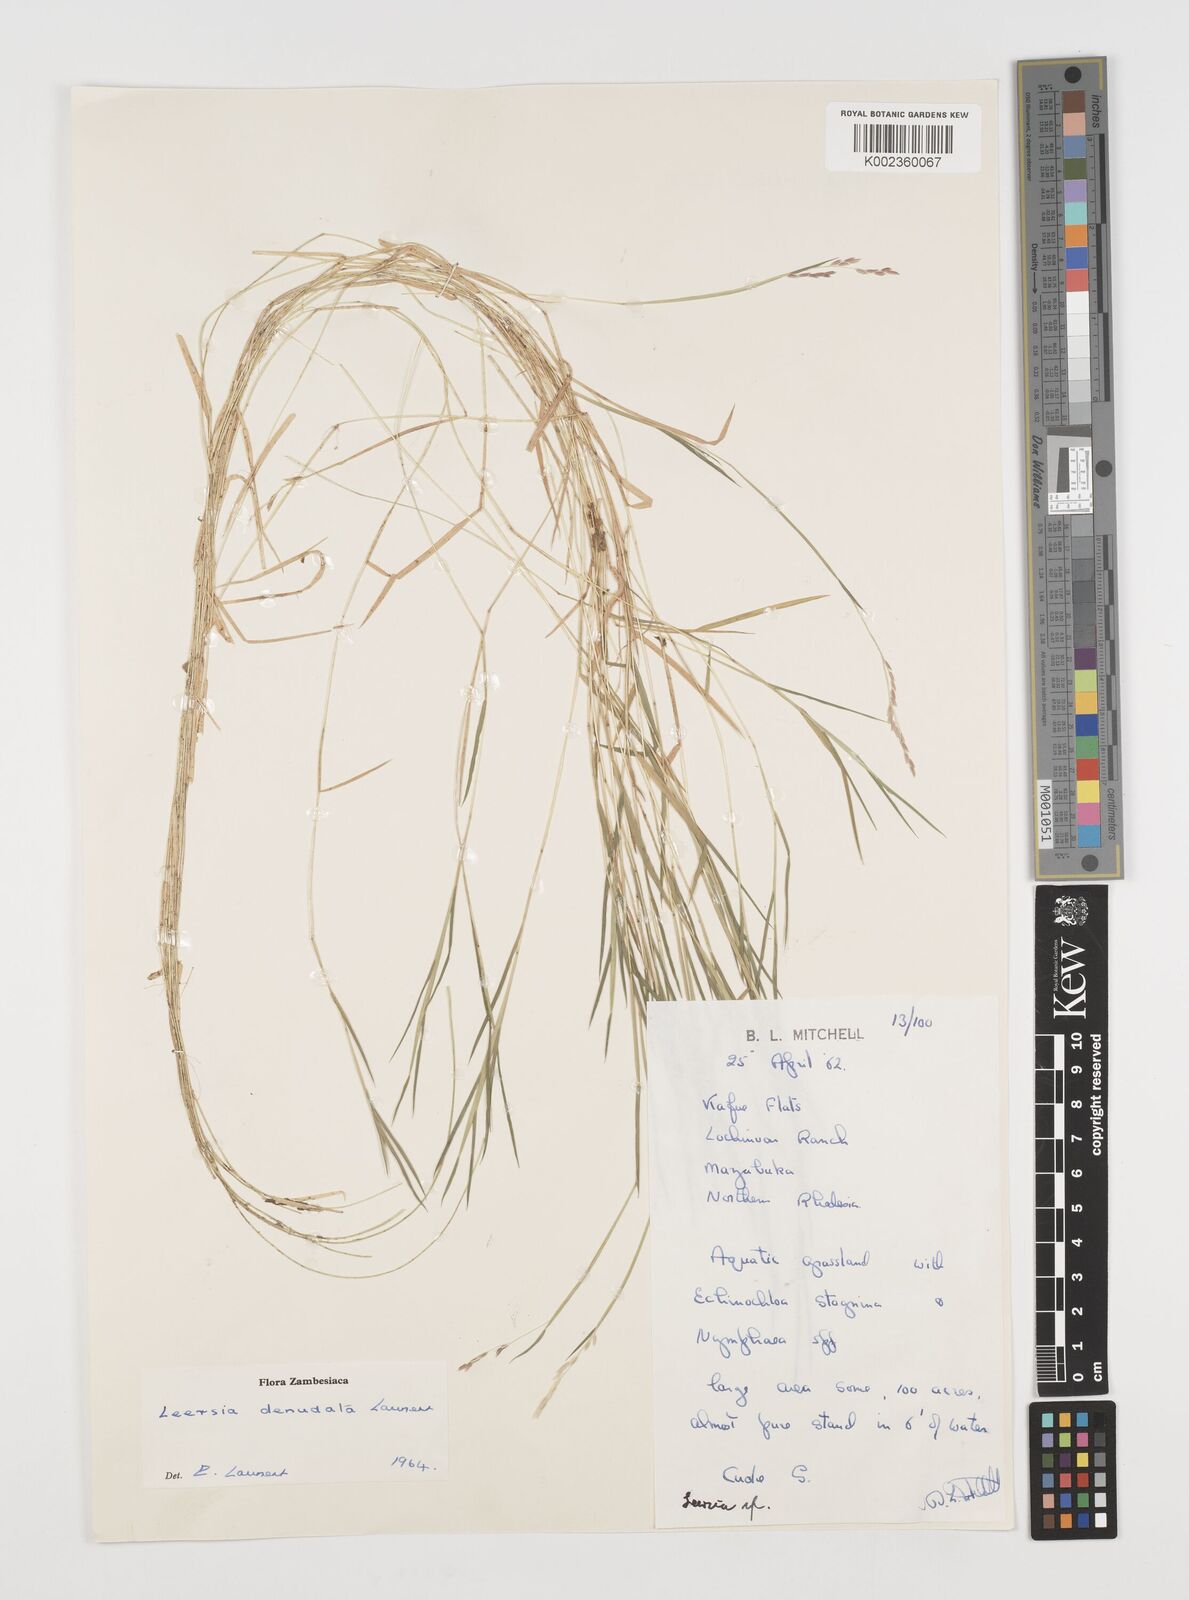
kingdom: Plantae
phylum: Tracheophyta
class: Liliopsida
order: Poales
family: Poaceae
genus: Leersia
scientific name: Leersia denudata
